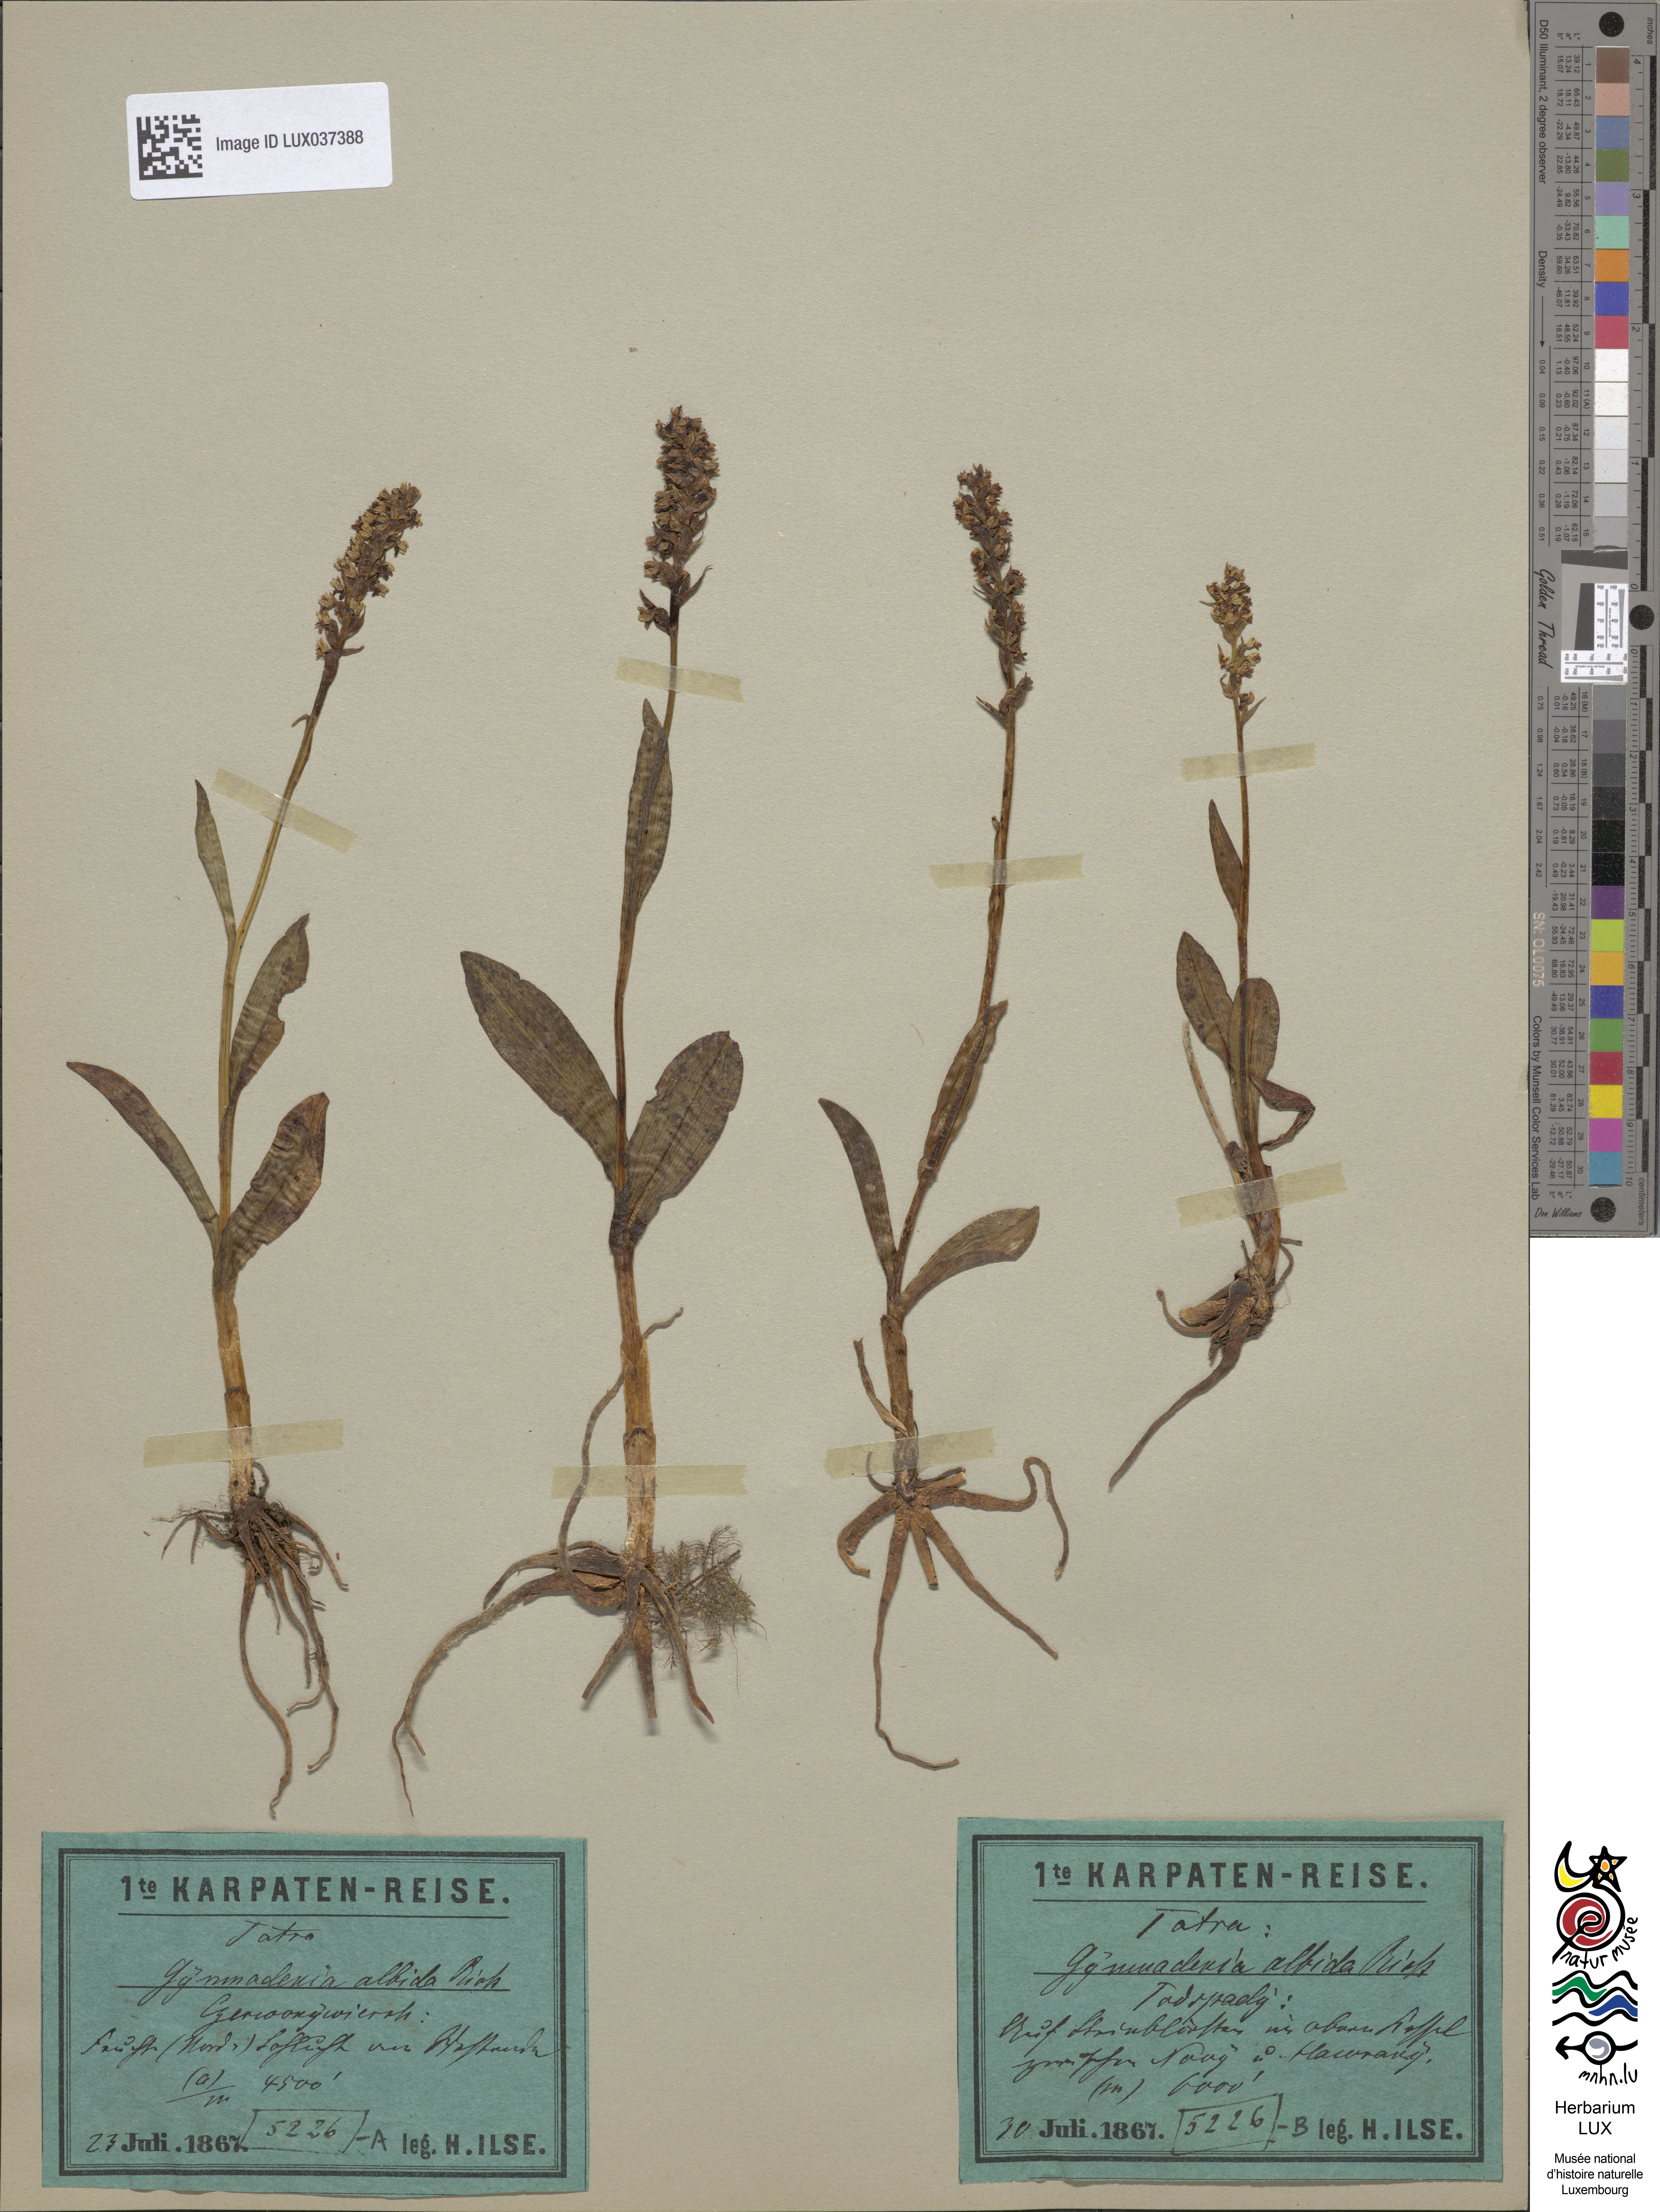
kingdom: Plantae
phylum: Tracheophyta
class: Liliopsida
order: Asparagales
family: Orchidaceae
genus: Pseudorchis
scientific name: Pseudorchis albida
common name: Small-white orchid
